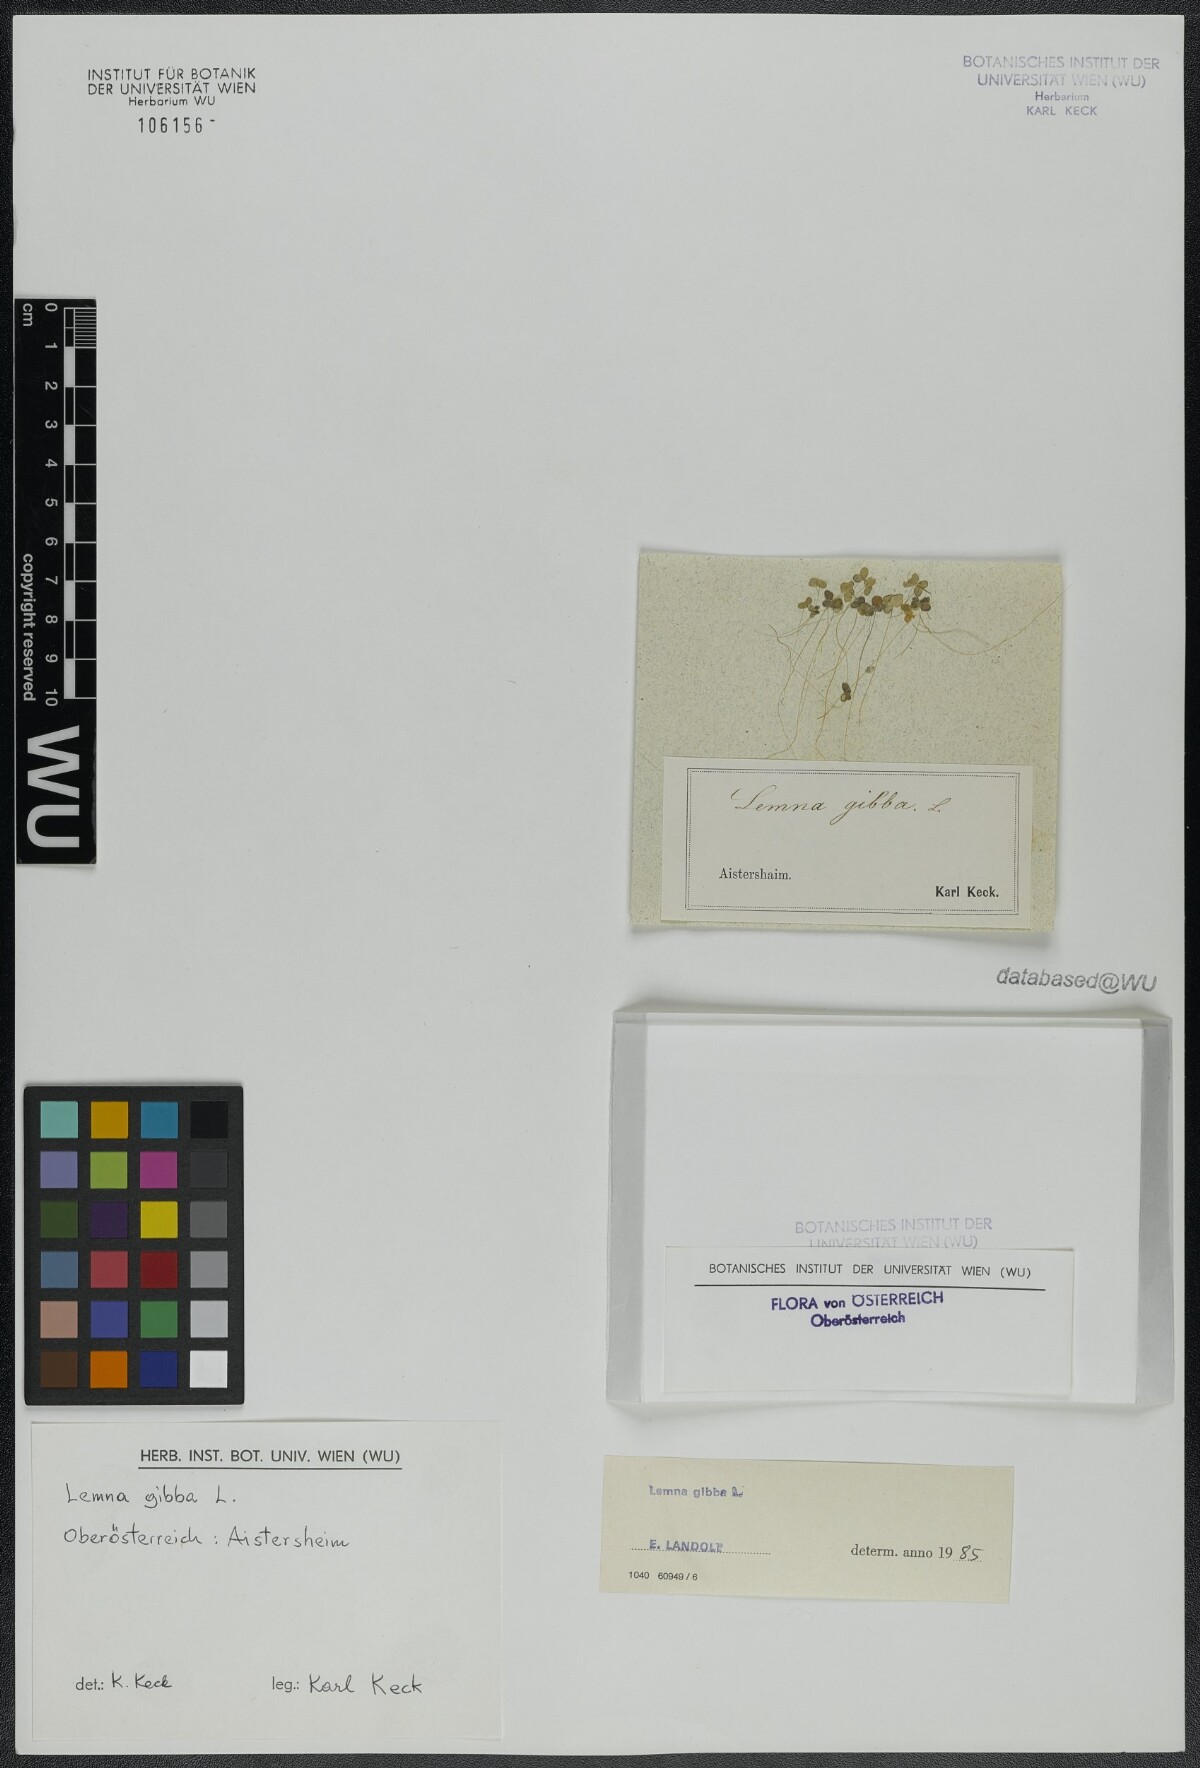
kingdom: Plantae
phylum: Tracheophyta
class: Liliopsida
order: Alismatales
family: Araceae
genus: Lemna
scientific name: Lemna gibba
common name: Fat duckweed
